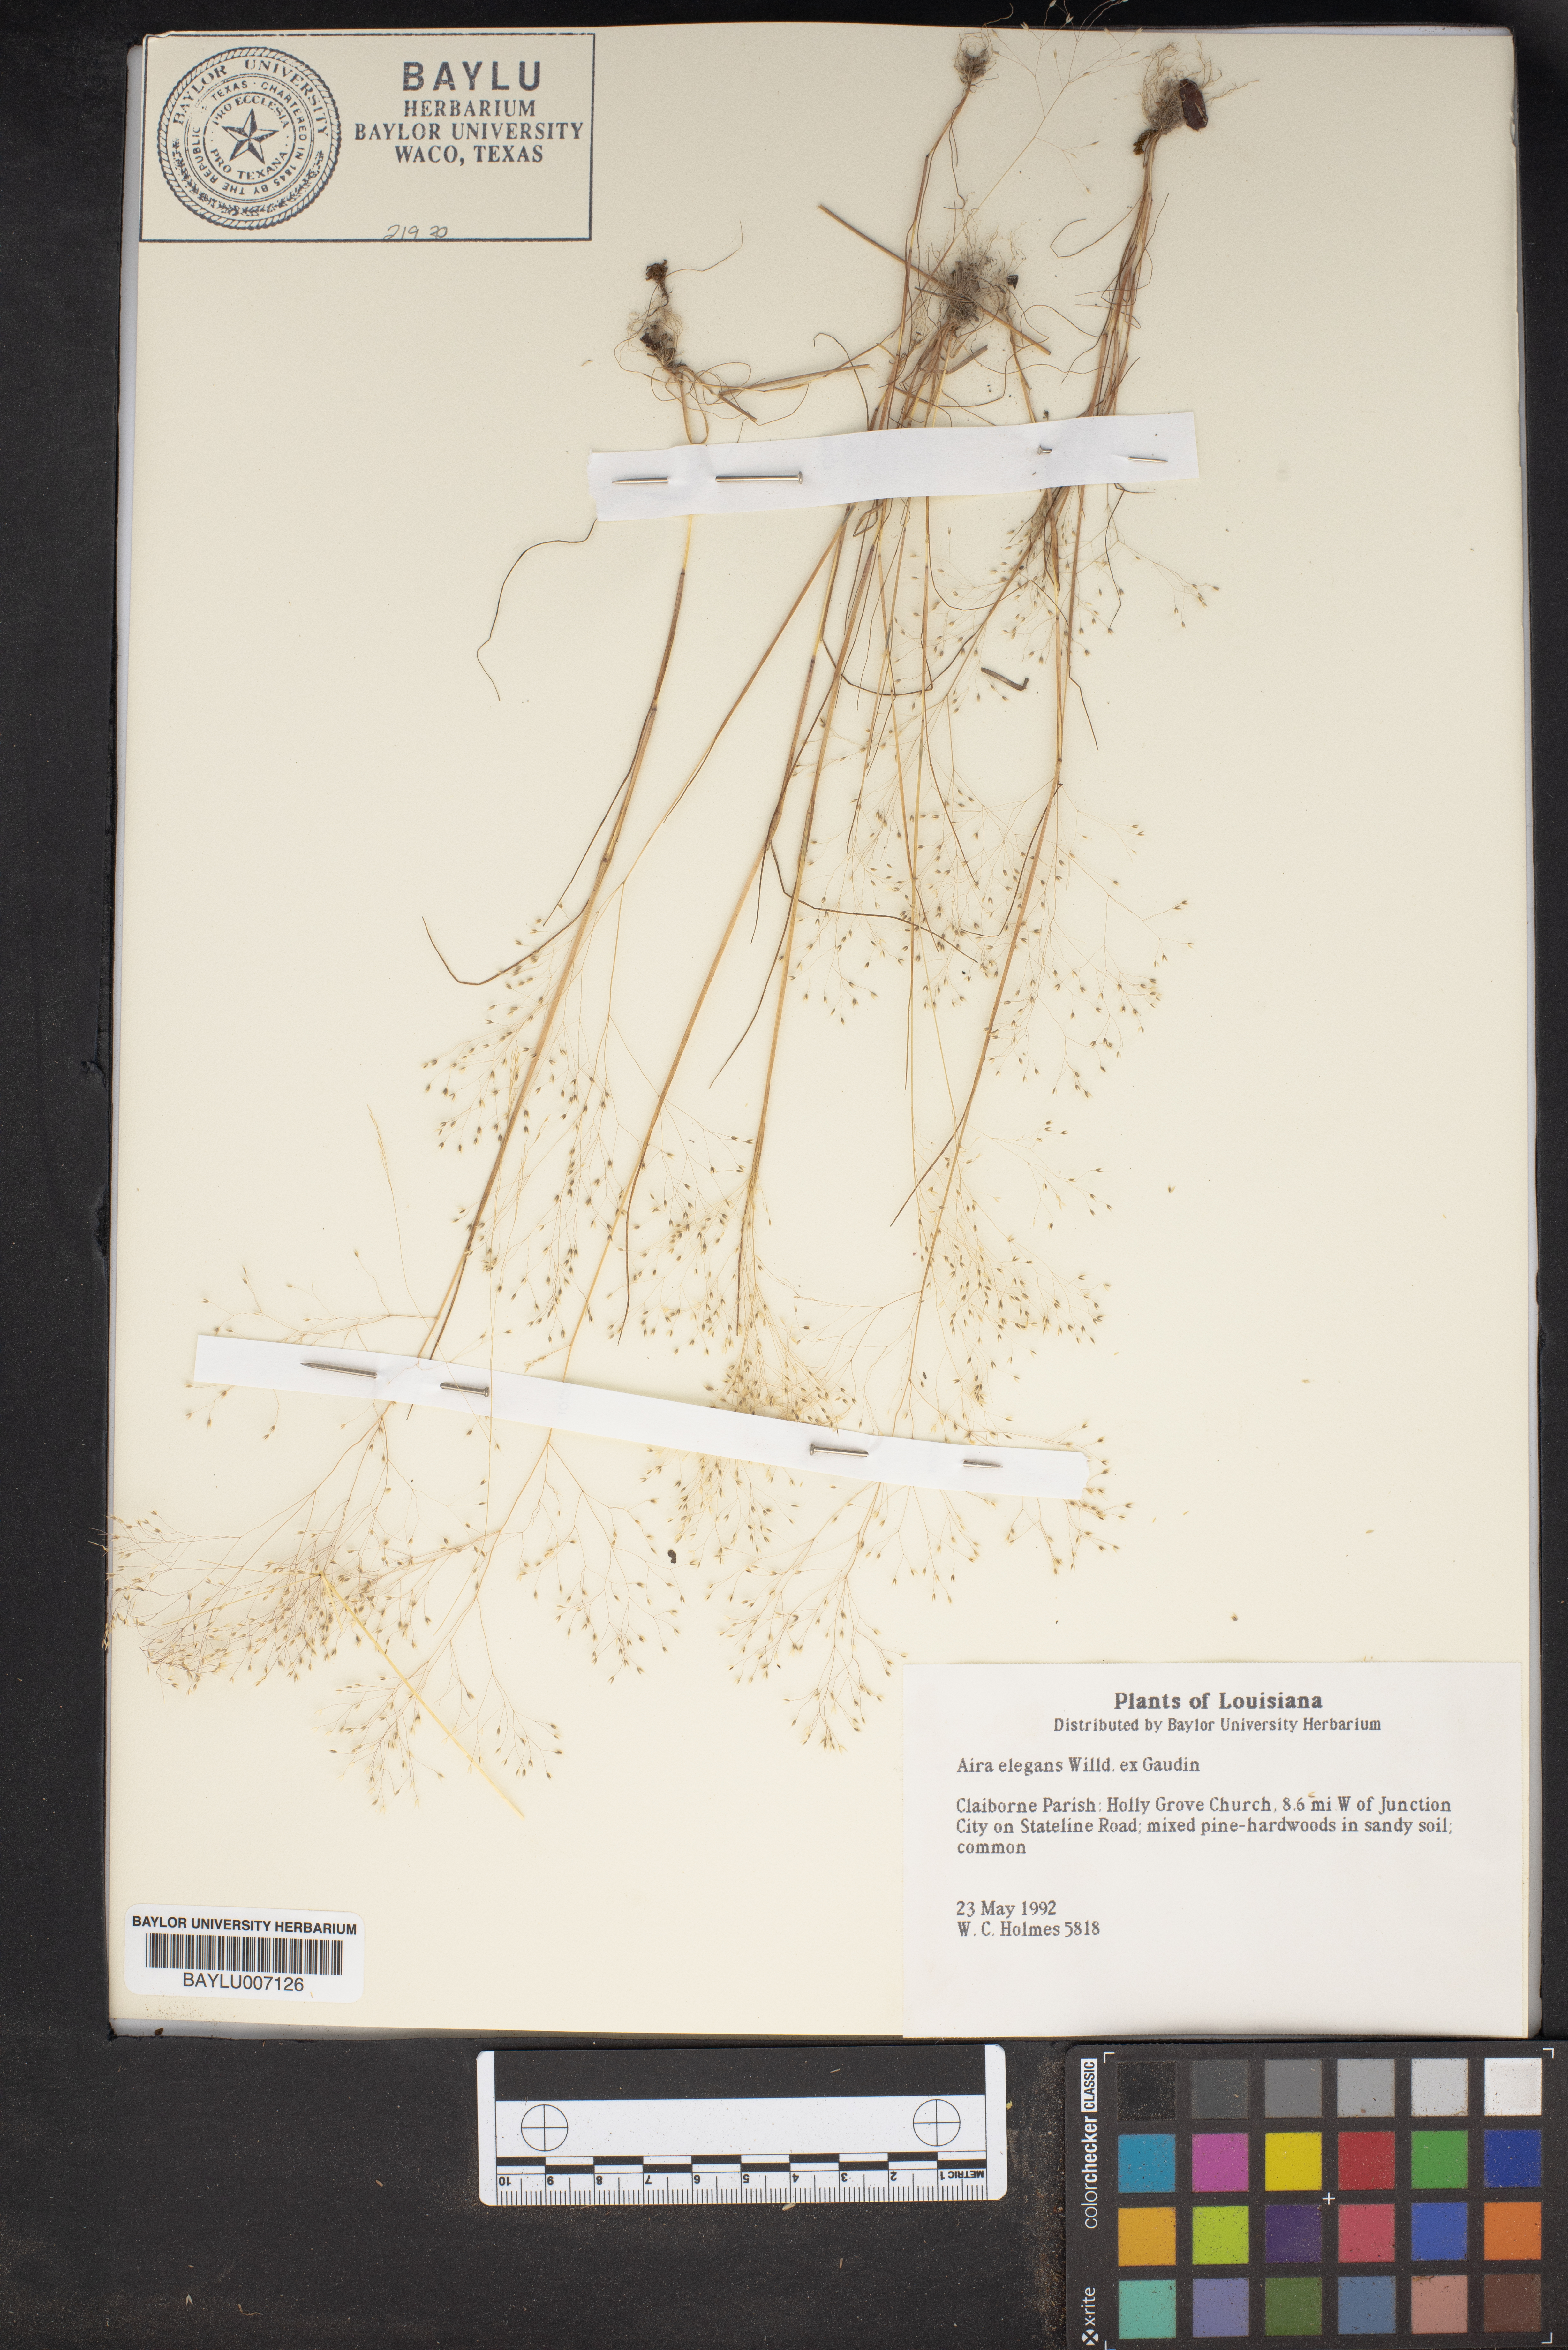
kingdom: Plantae
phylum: Tracheophyta
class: Liliopsida
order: Poales
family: Poaceae
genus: Aira
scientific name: Aira elegans
